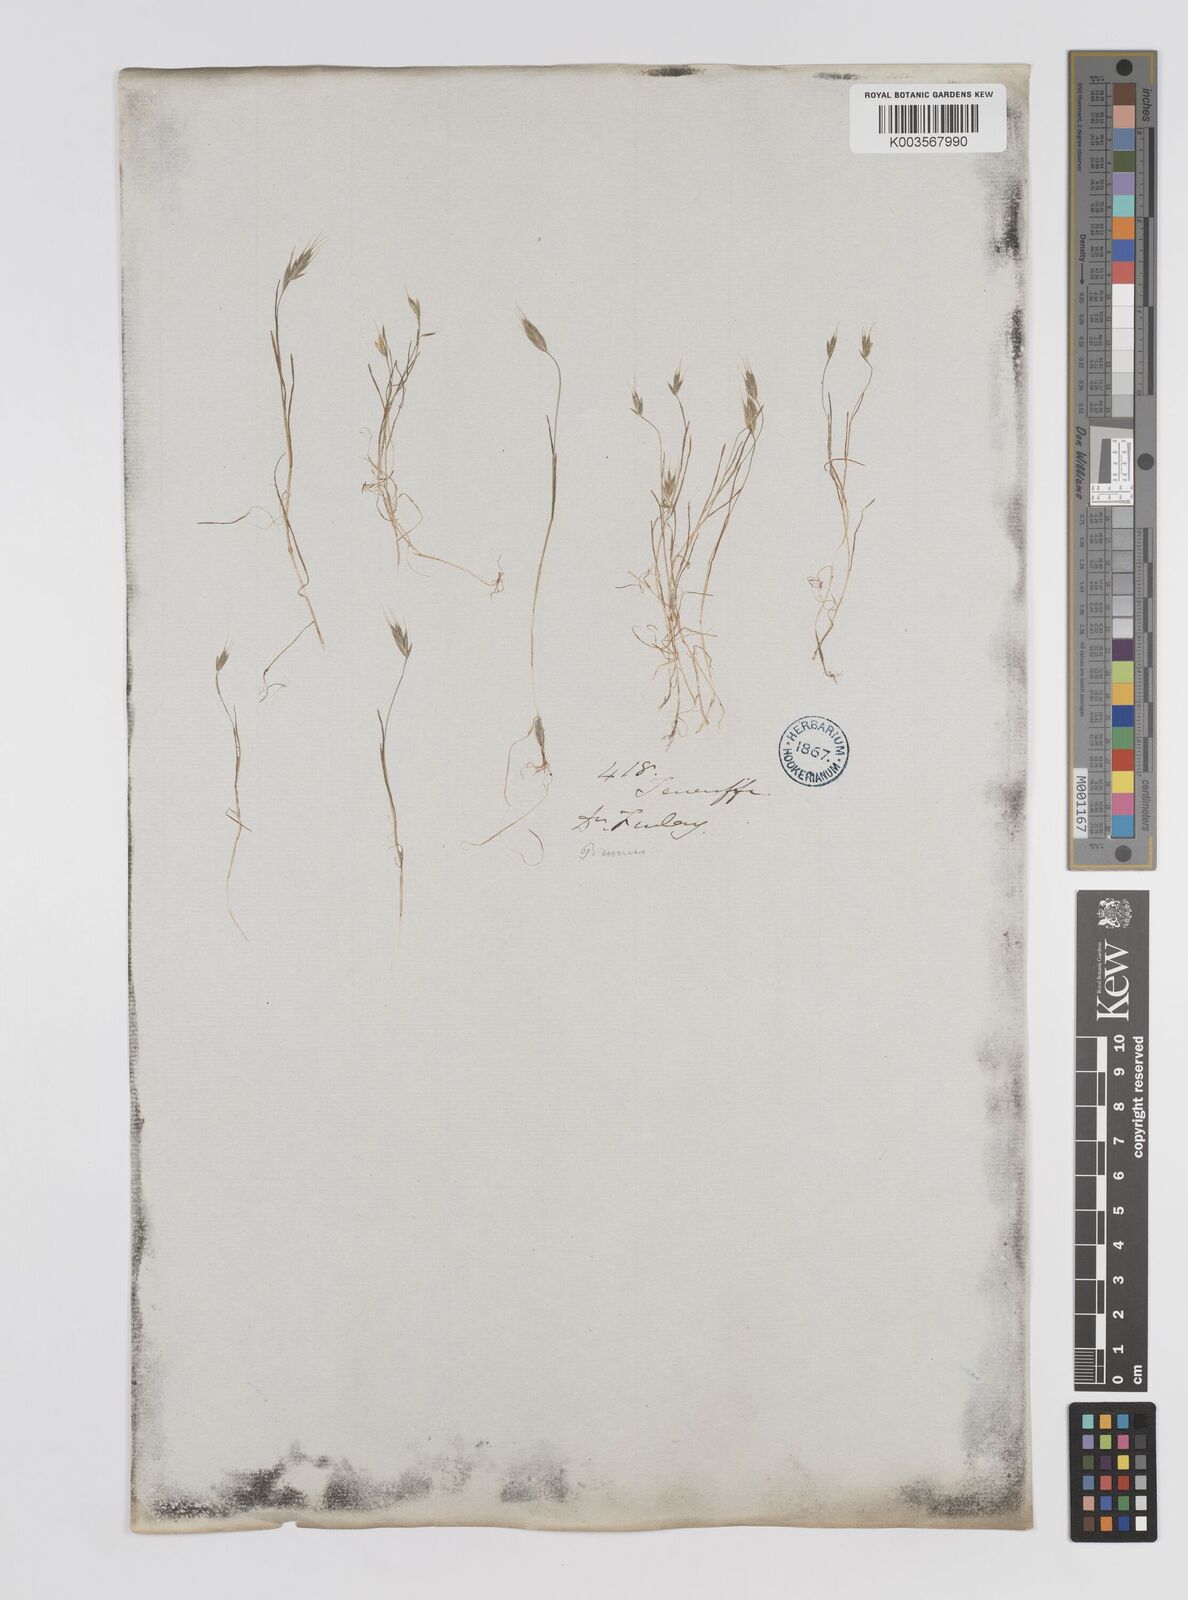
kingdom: Plantae
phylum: Tracheophyta
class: Liliopsida
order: Poales
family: Poaceae
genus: Bromus
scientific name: Bromus
